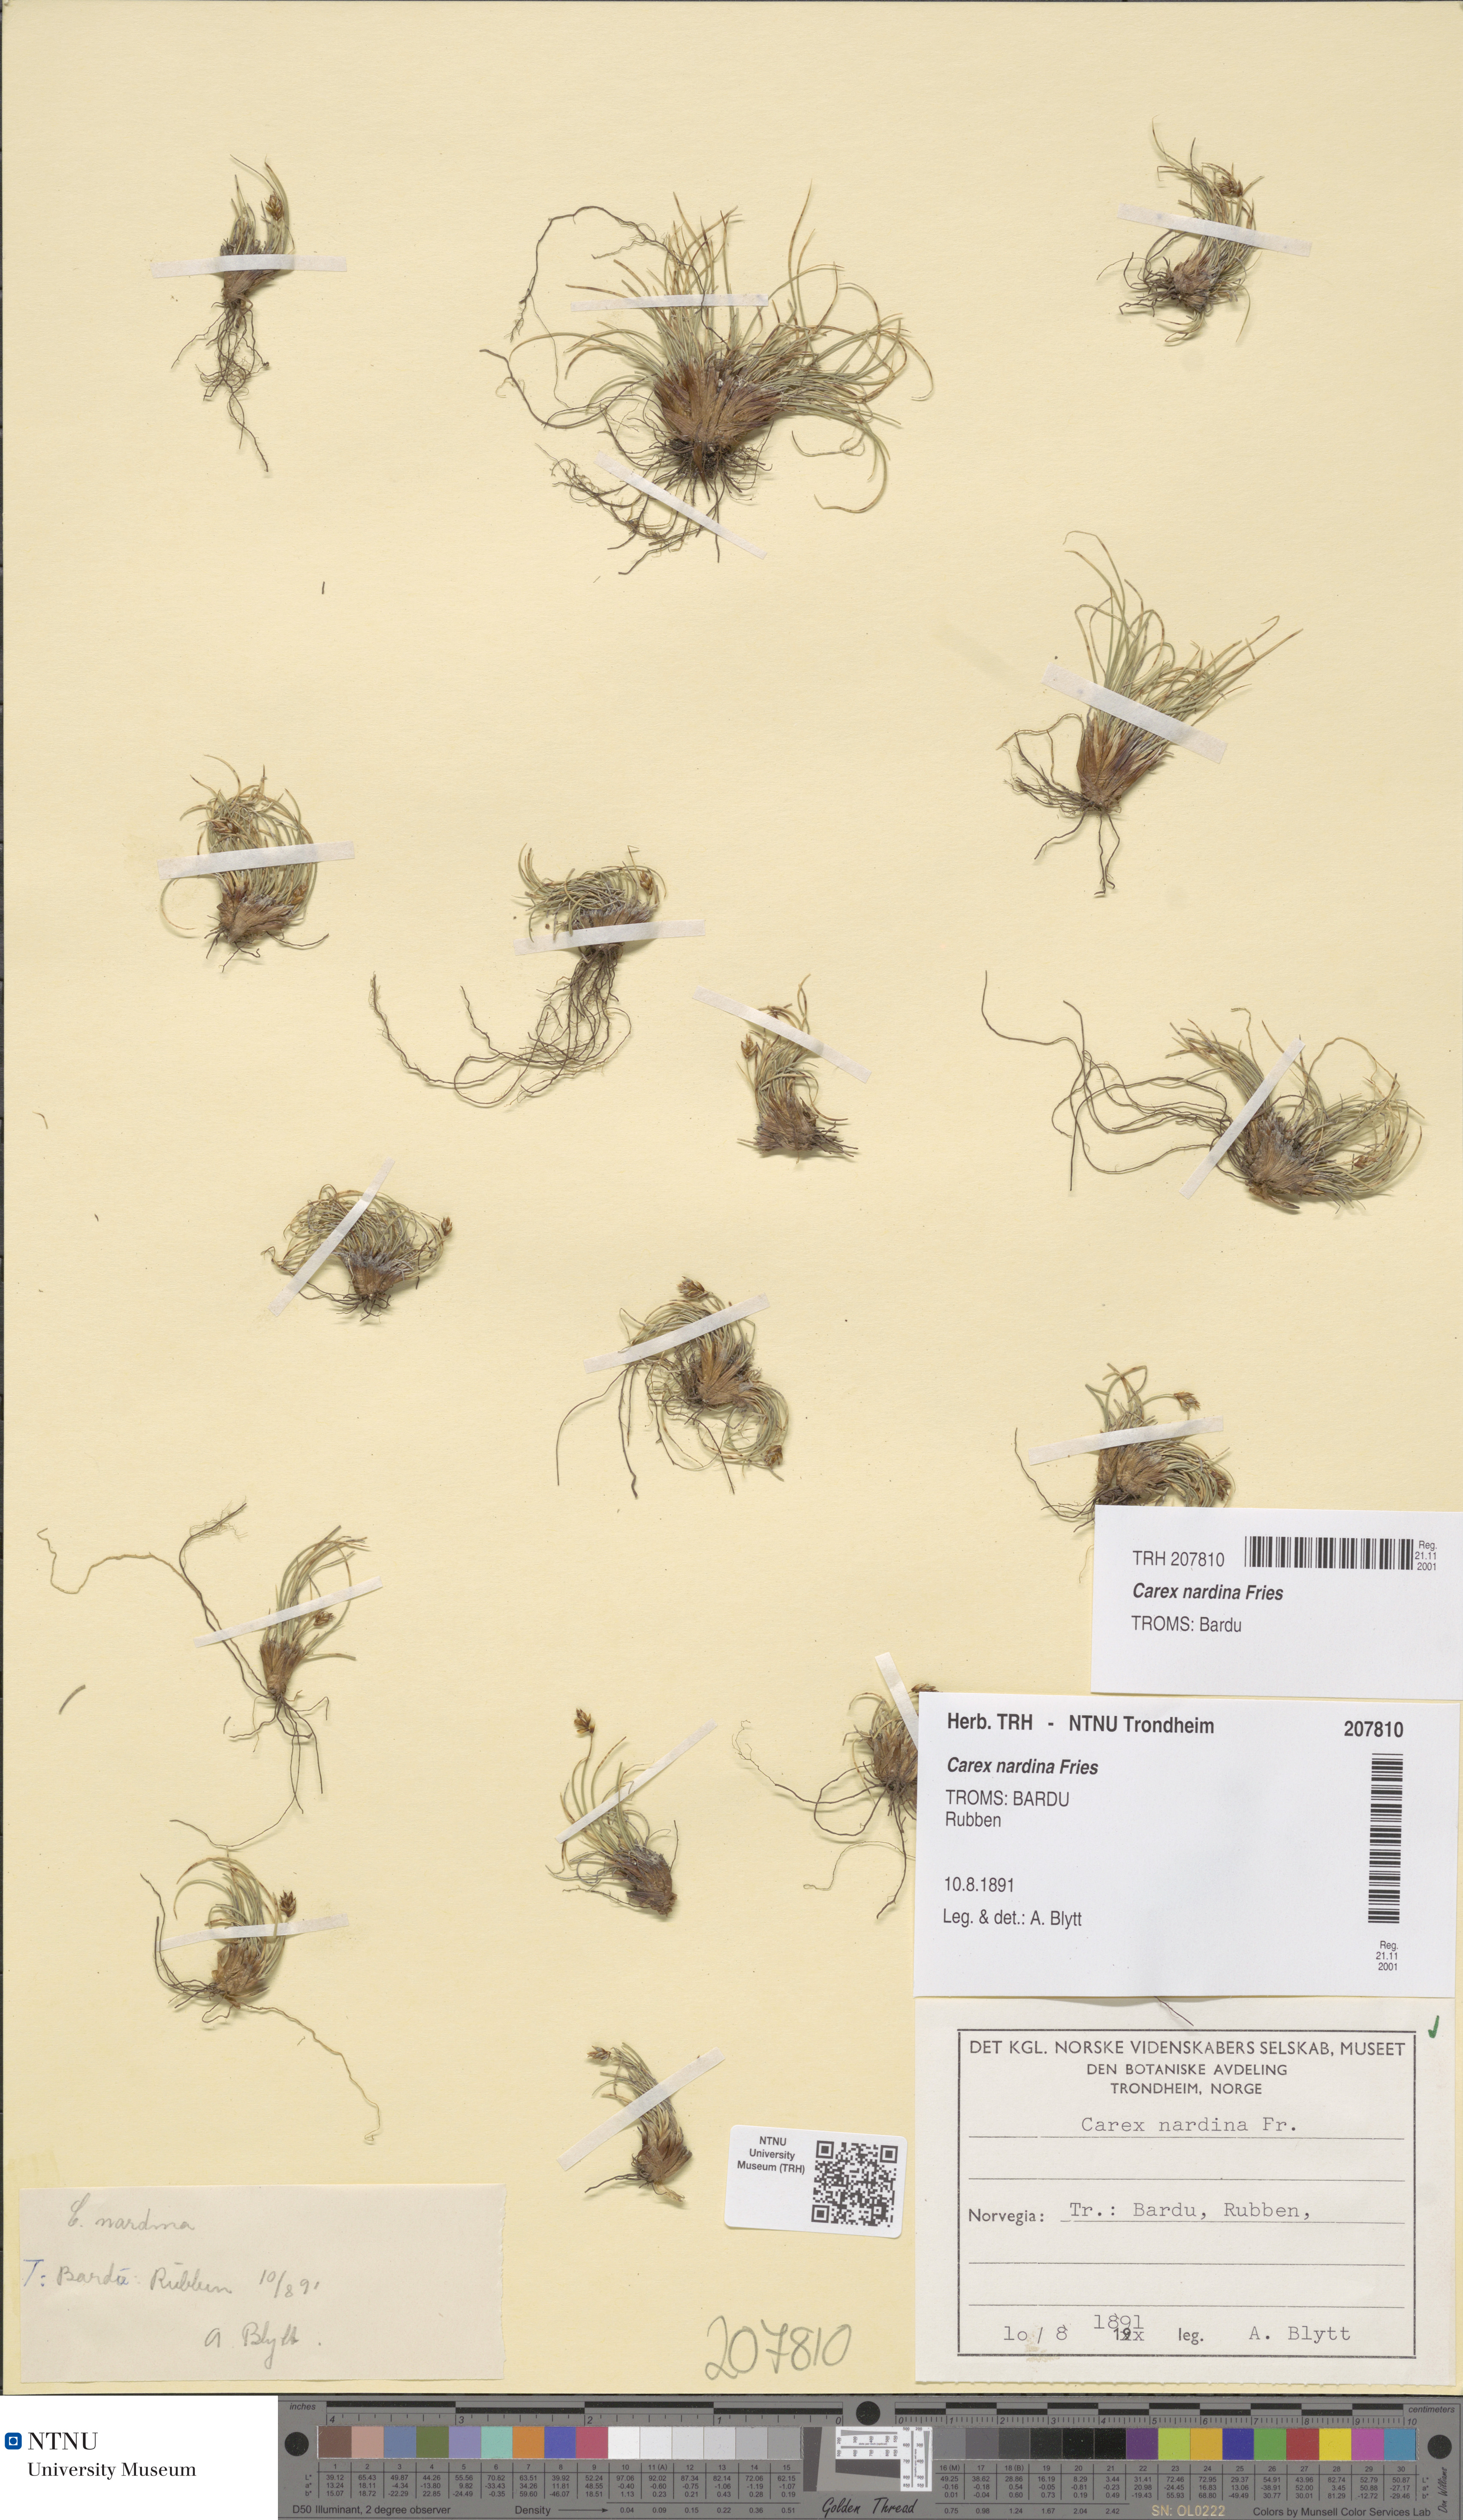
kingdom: Plantae
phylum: Tracheophyta
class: Liliopsida
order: Poales
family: Cyperaceae
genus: Carex
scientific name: Carex nardina
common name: Nard sedge
